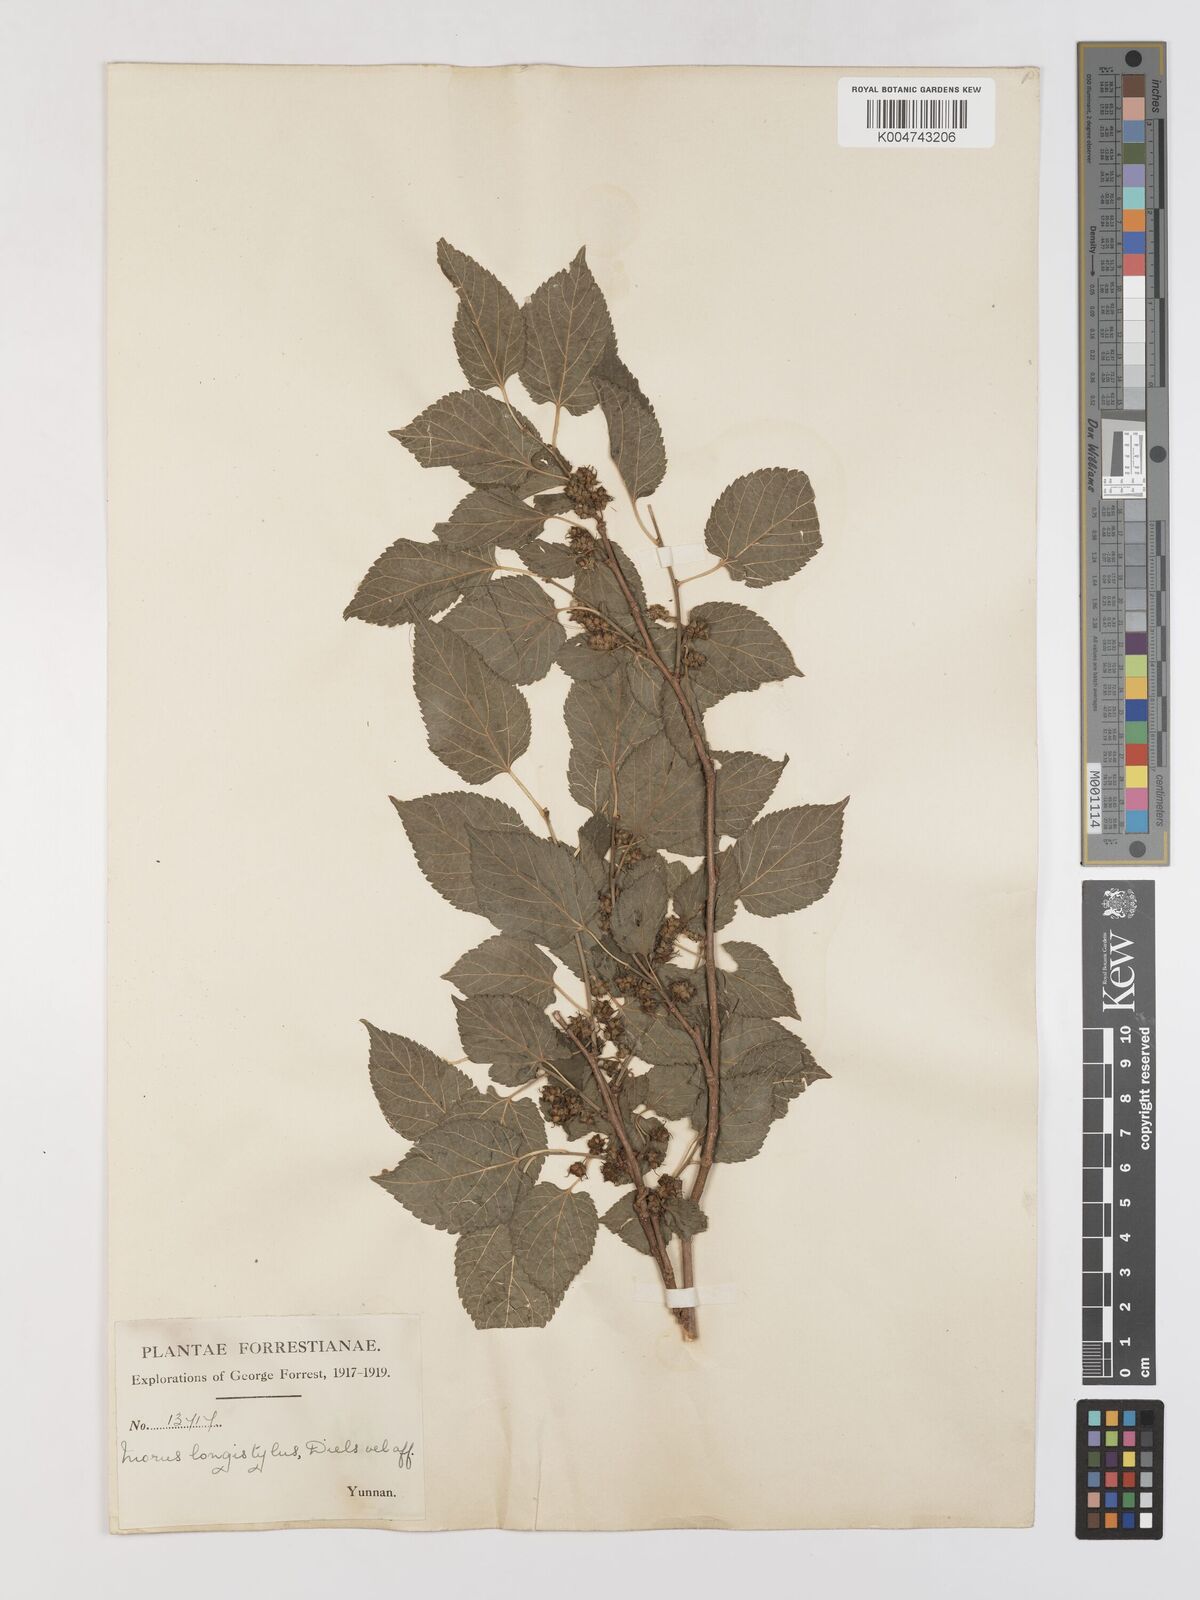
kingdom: Plantae
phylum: Tracheophyta
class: Magnoliopsida
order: Rosales
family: Moraceae
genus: Morus
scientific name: Morus indica
